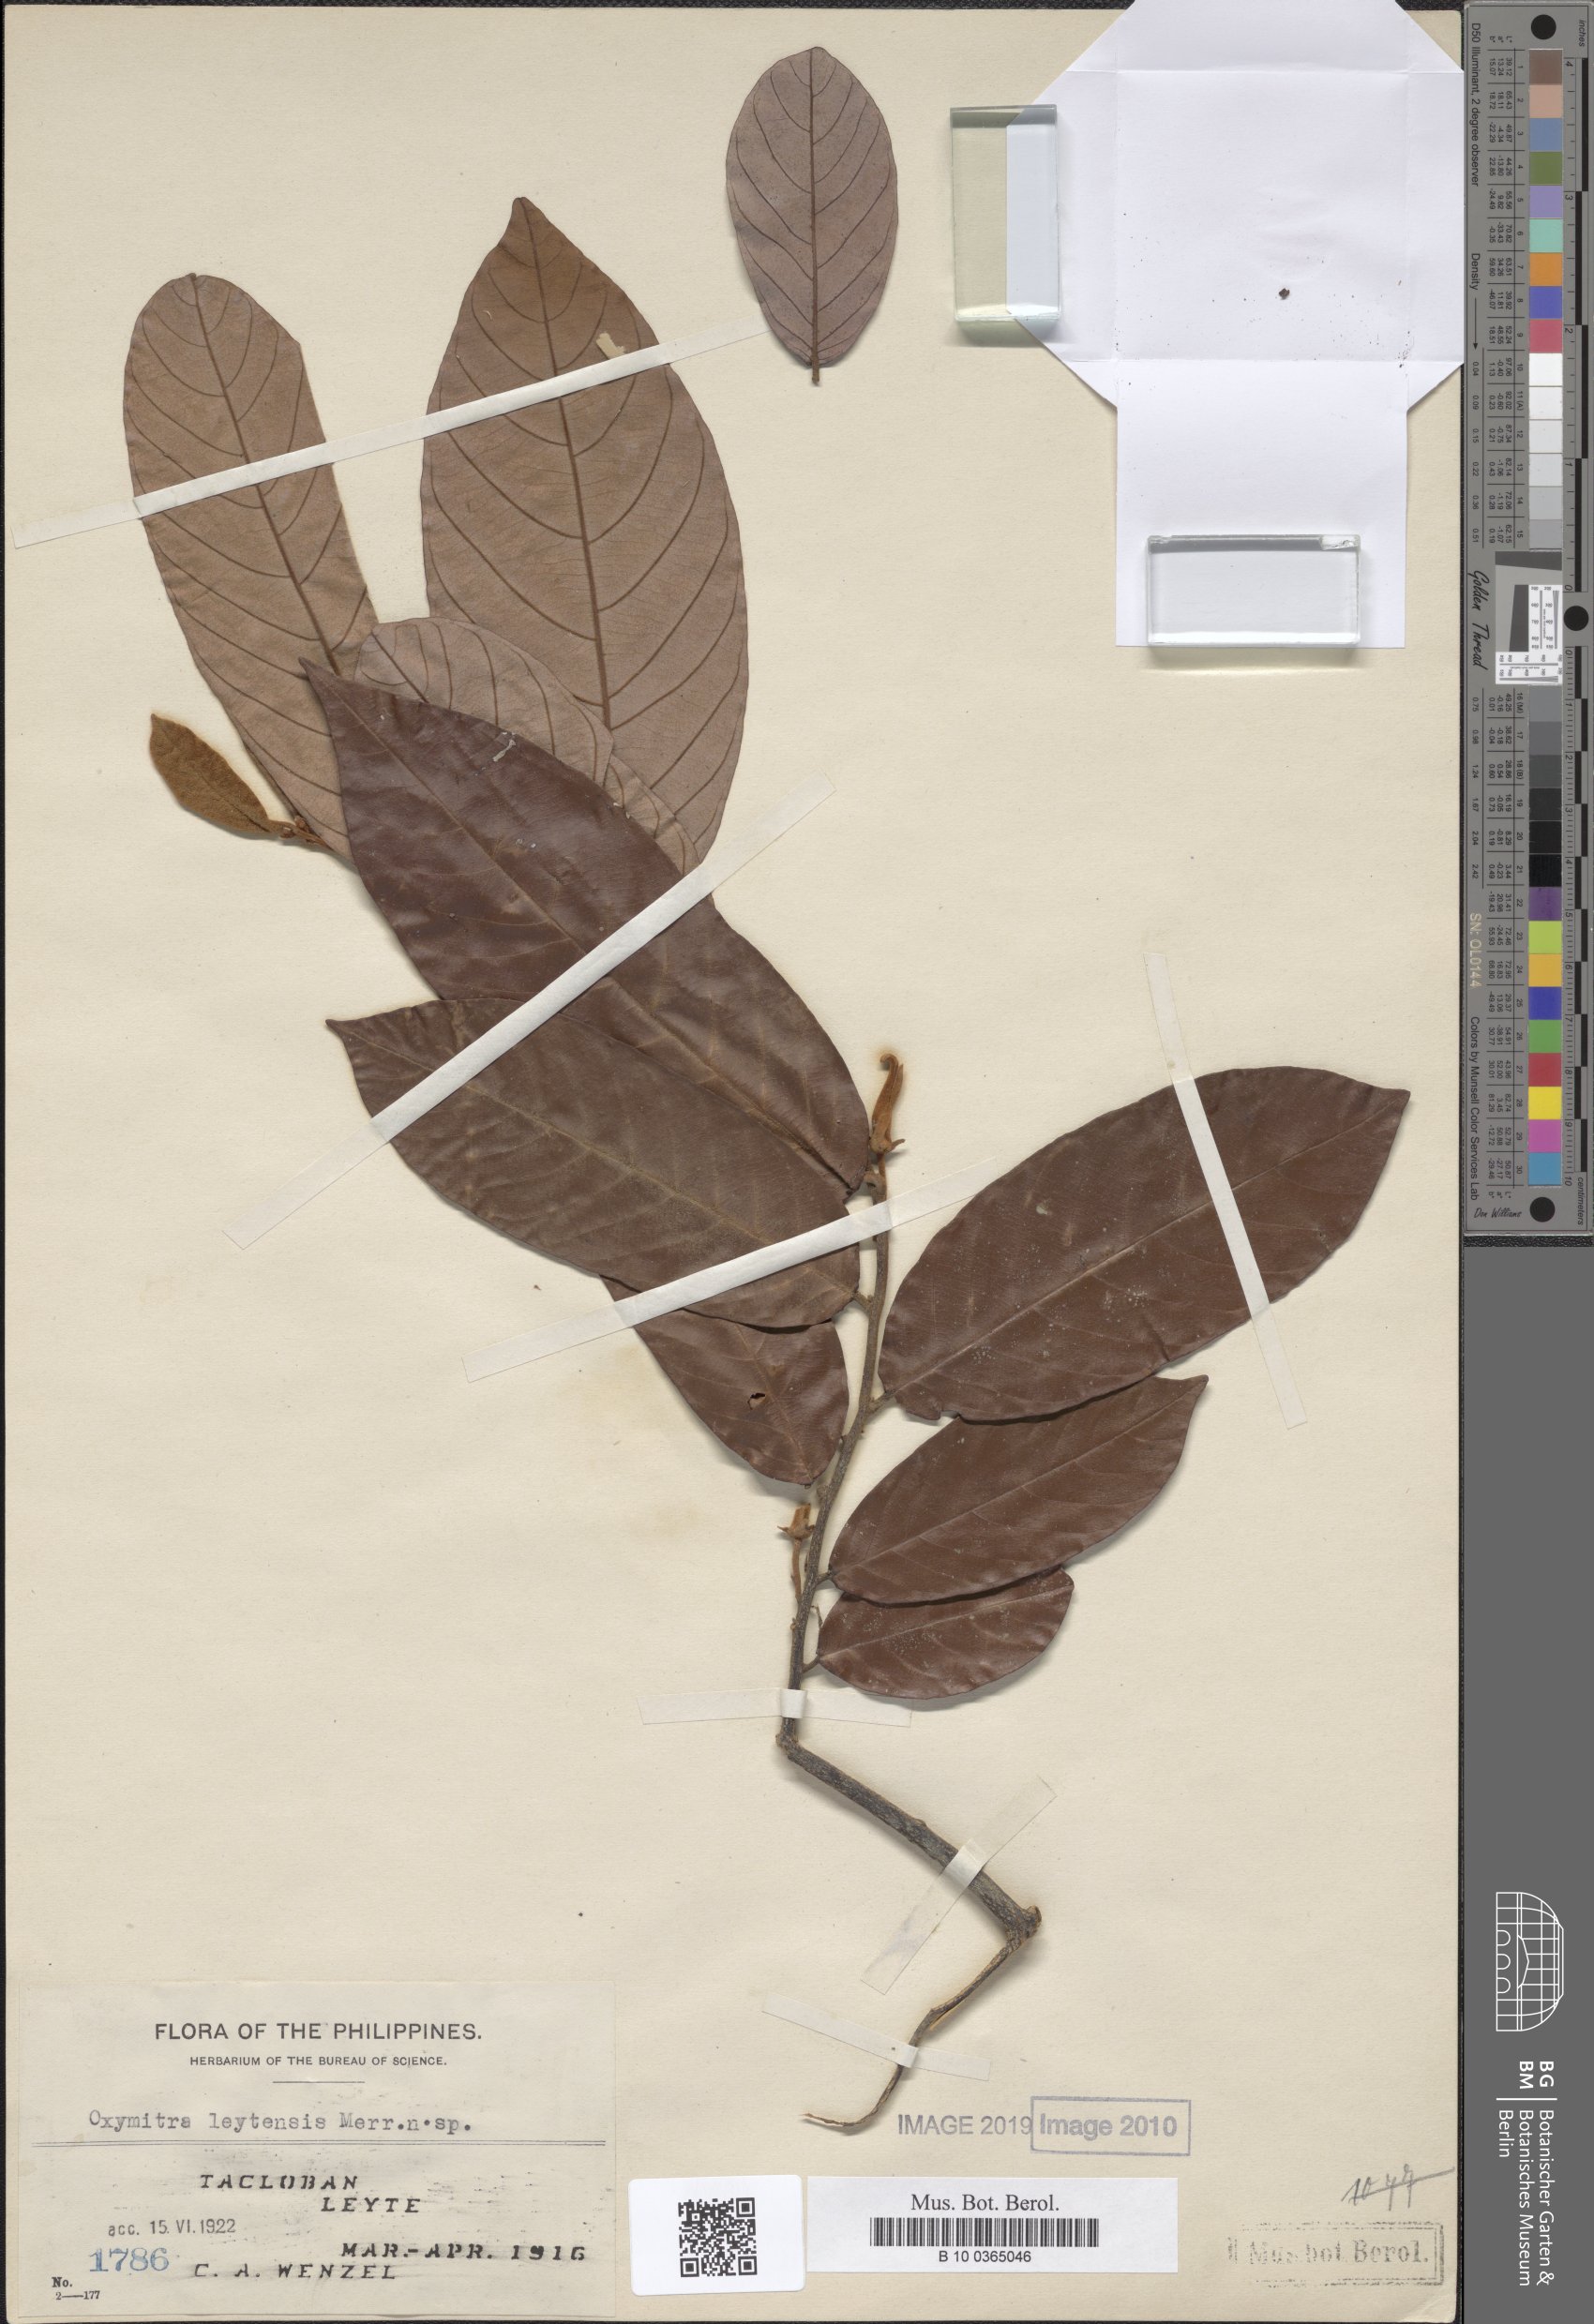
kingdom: Plantae
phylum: Marchantiophyta
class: Marchantiopsida
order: Marchantiales
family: Ricciaceae
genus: Oxymitra
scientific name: Oxymitra
